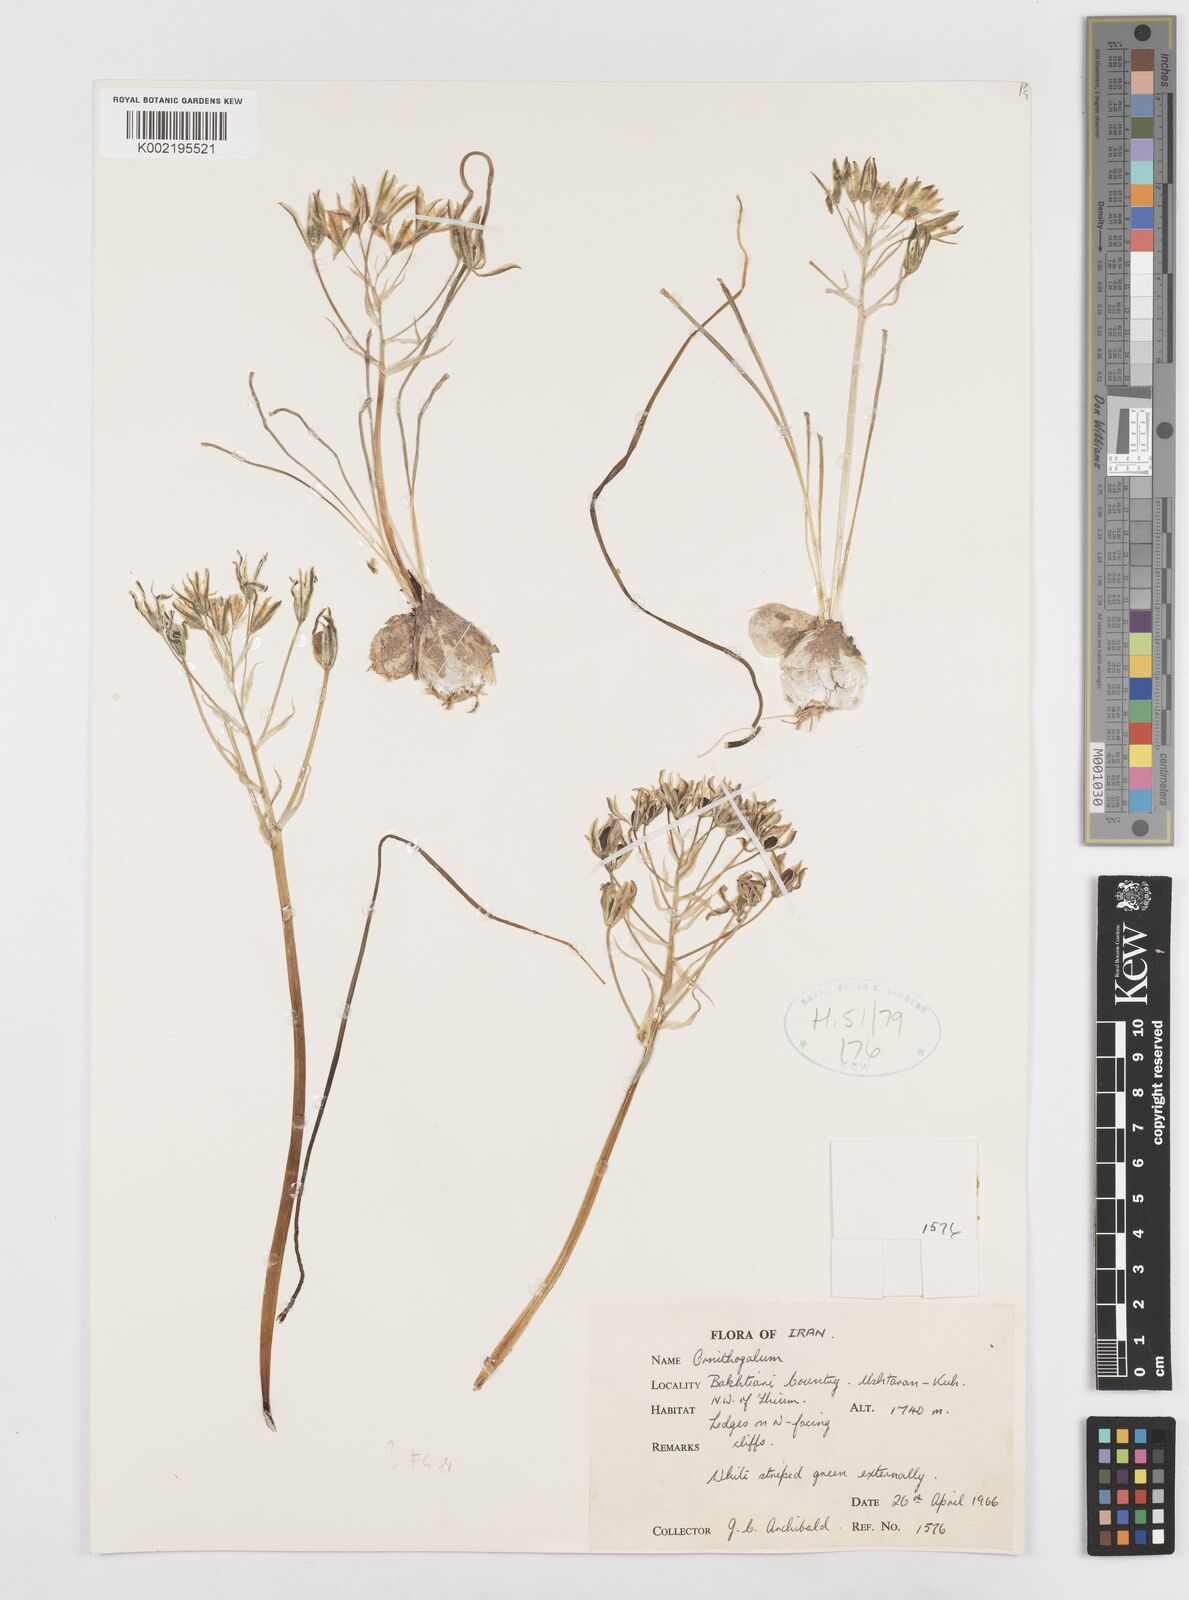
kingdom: Plantae
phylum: Tracheophyta
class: Liliopsida
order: Asparagales
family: Asparagaceae
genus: Ornithogalum
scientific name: Ornithogalum
